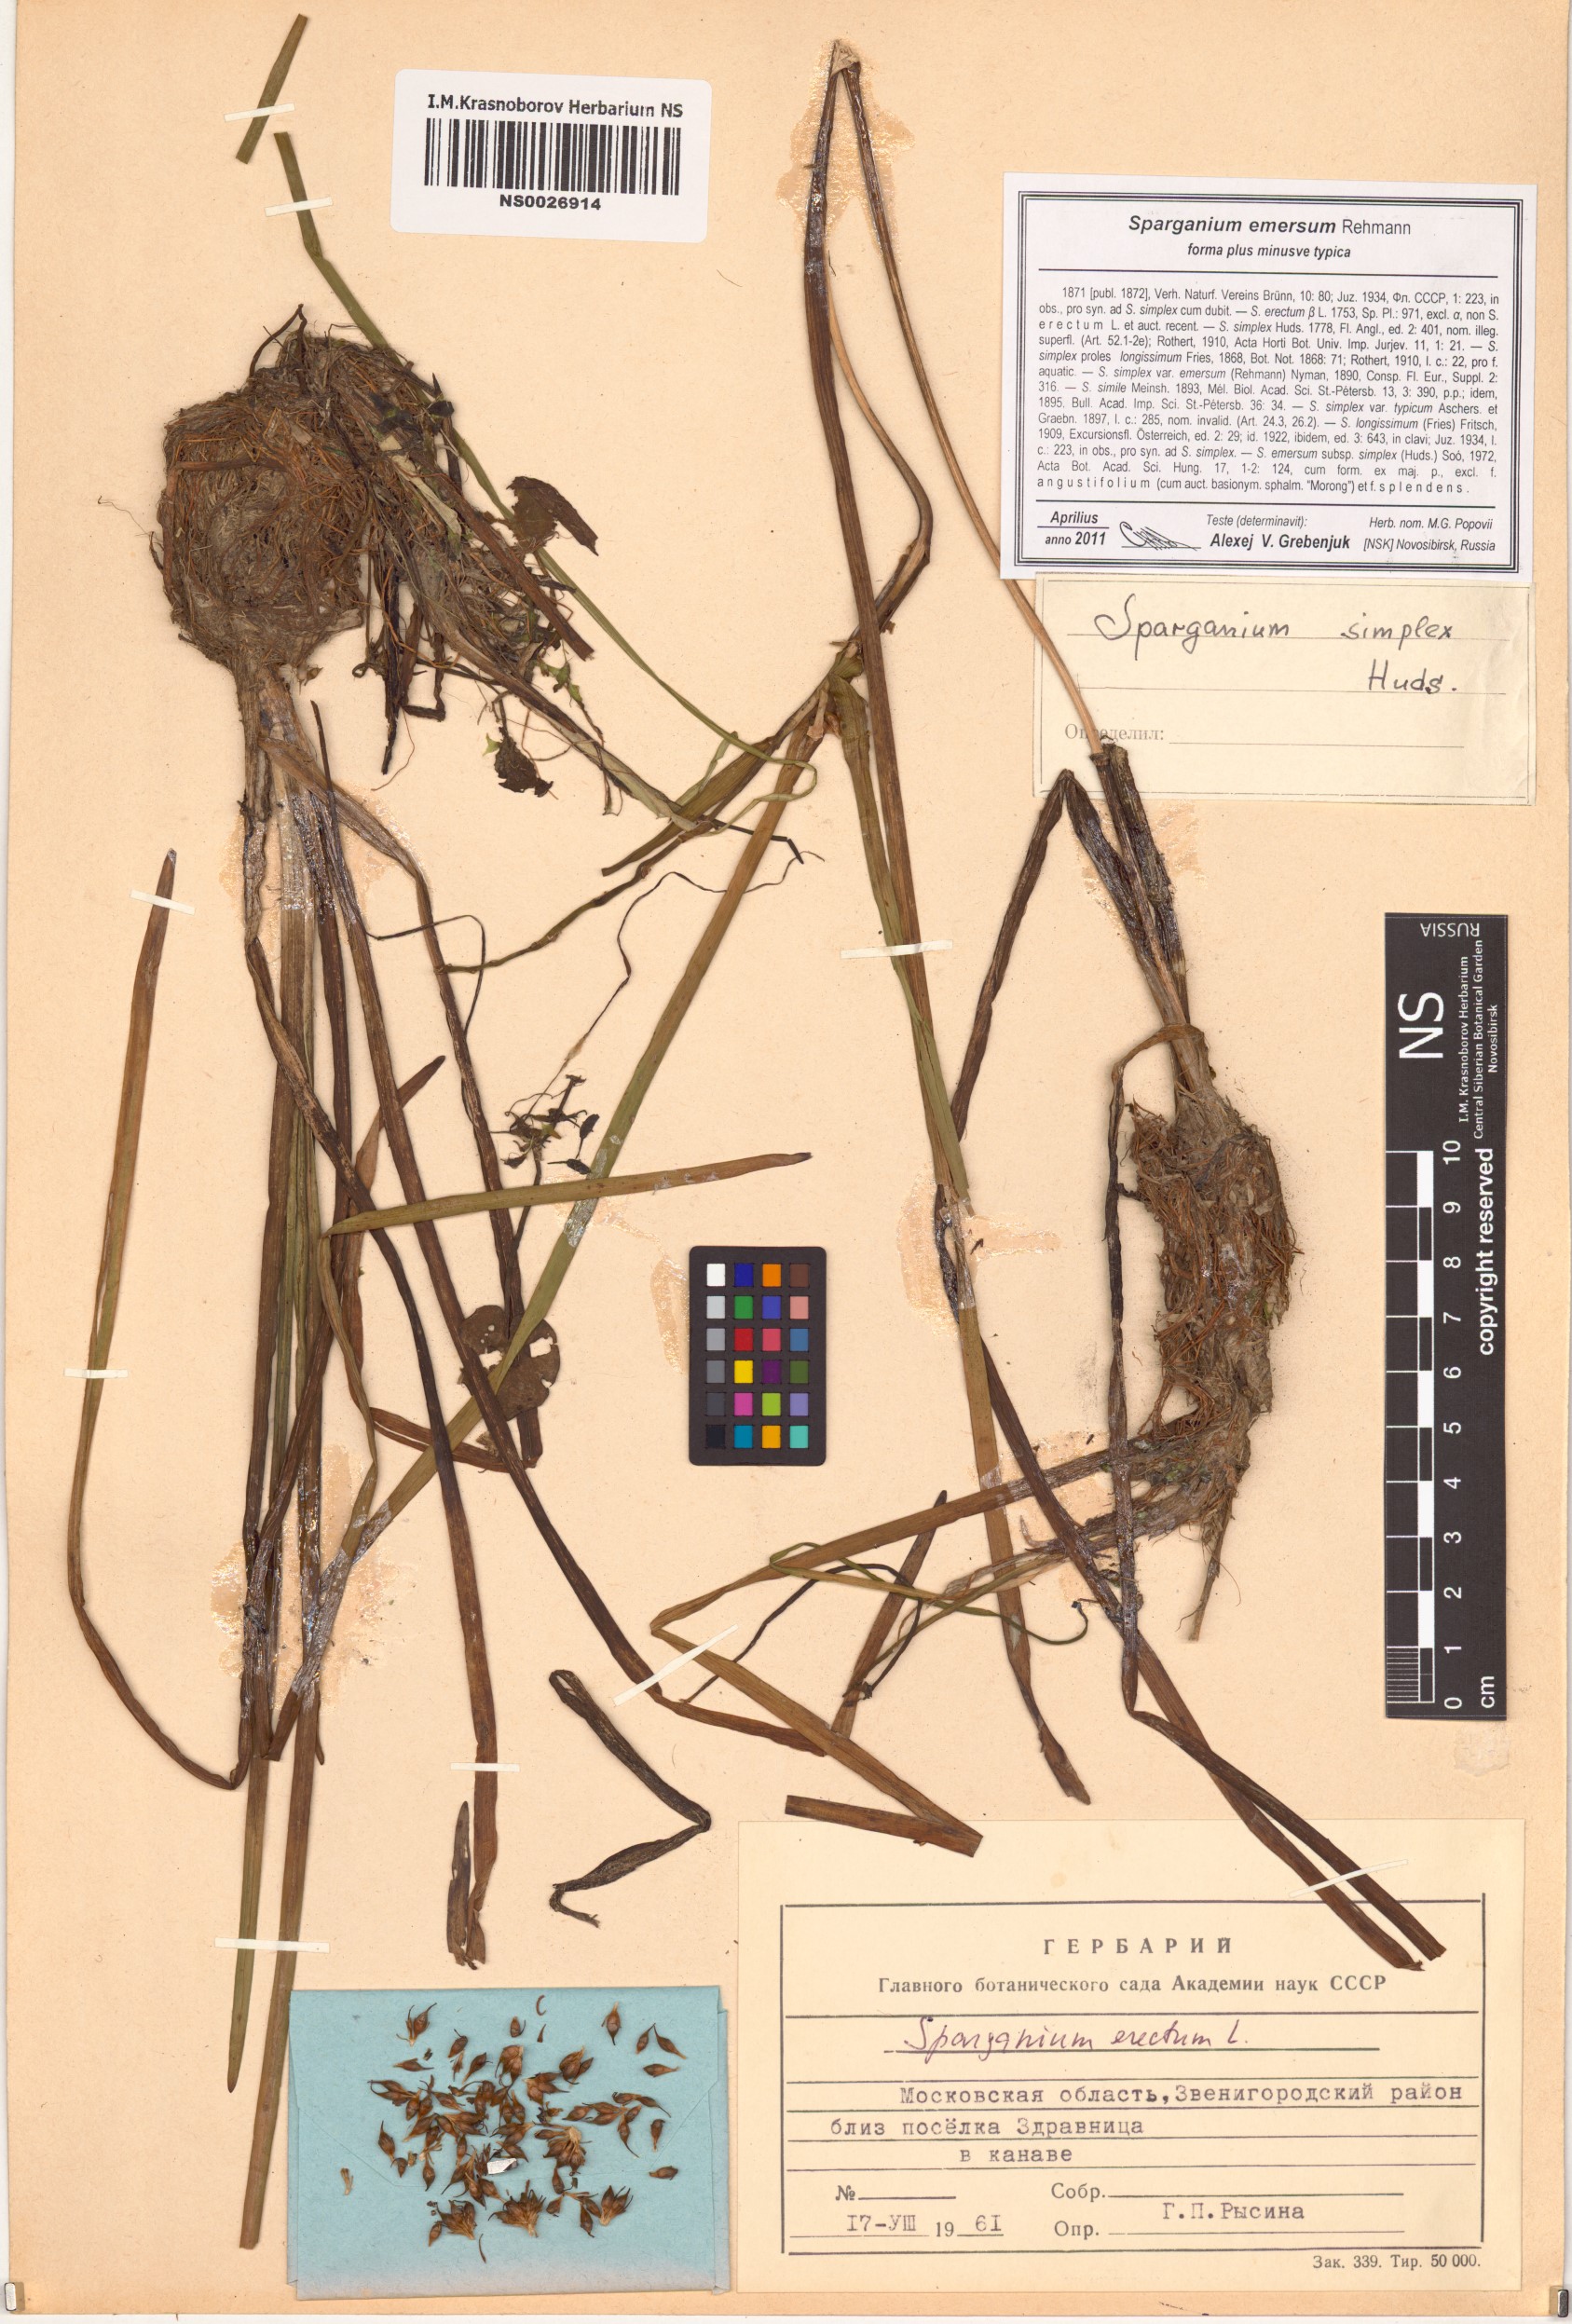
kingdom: Plantae
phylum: Tracheophyta
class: Liliopsida
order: Poales
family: Typhaceae
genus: Sparganium
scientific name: Sparganium emersum
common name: Unbranched bur-reed
